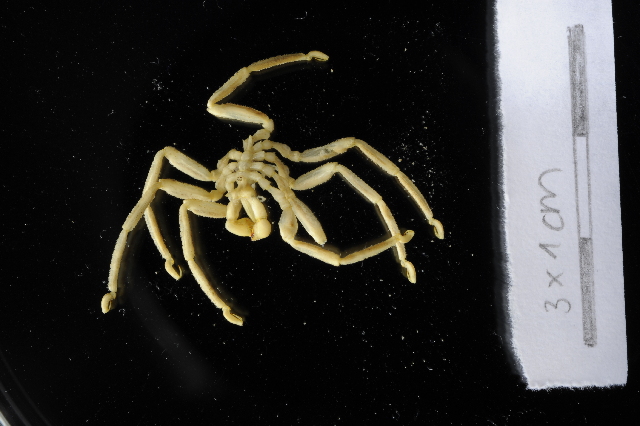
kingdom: Animalia
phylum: Arthropoda
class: Pycnogonida
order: Pantopoda
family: Callipallenidae
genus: Austropallene
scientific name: Austropallene cornigera
